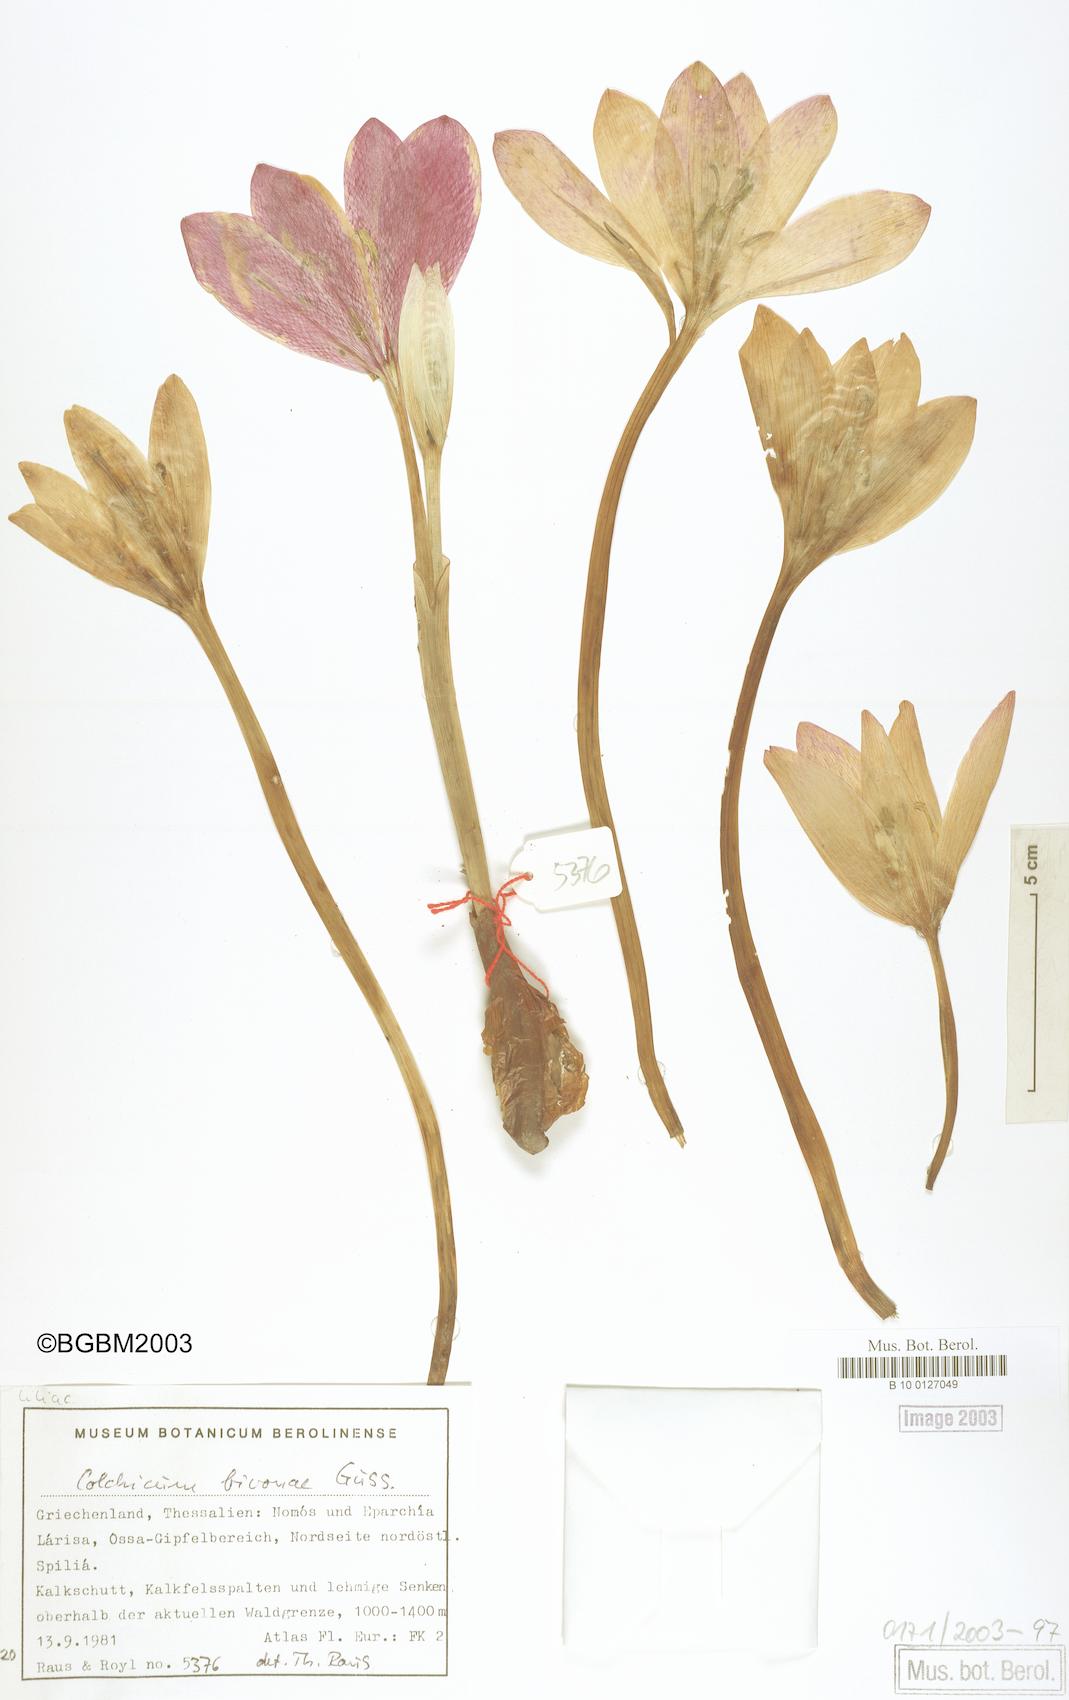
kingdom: Plantae
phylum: Tracheophyta
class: Liliopsida
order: Liliales
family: Colchicaceae
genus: Colchicum
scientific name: Colchicum bivonae
